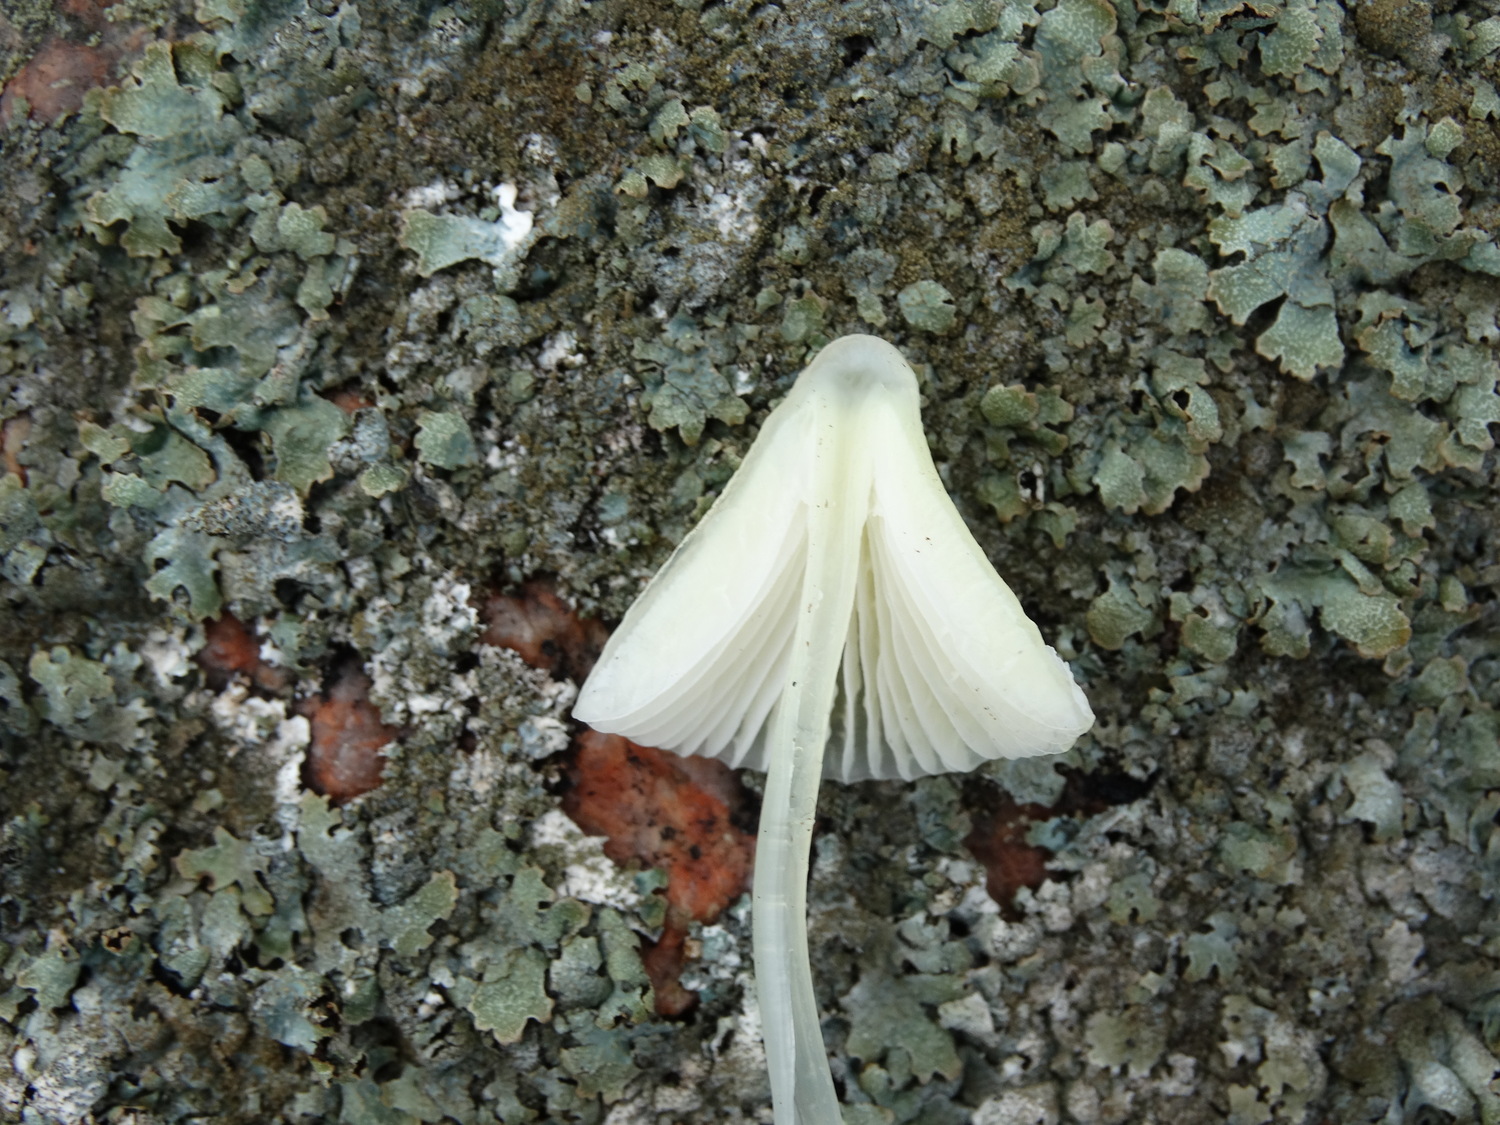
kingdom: Fungi
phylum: Basidiomycota
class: Agaricomycetes
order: Agaricales
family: Mycenaceae
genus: Mycena
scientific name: Mycena
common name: huesvamp
